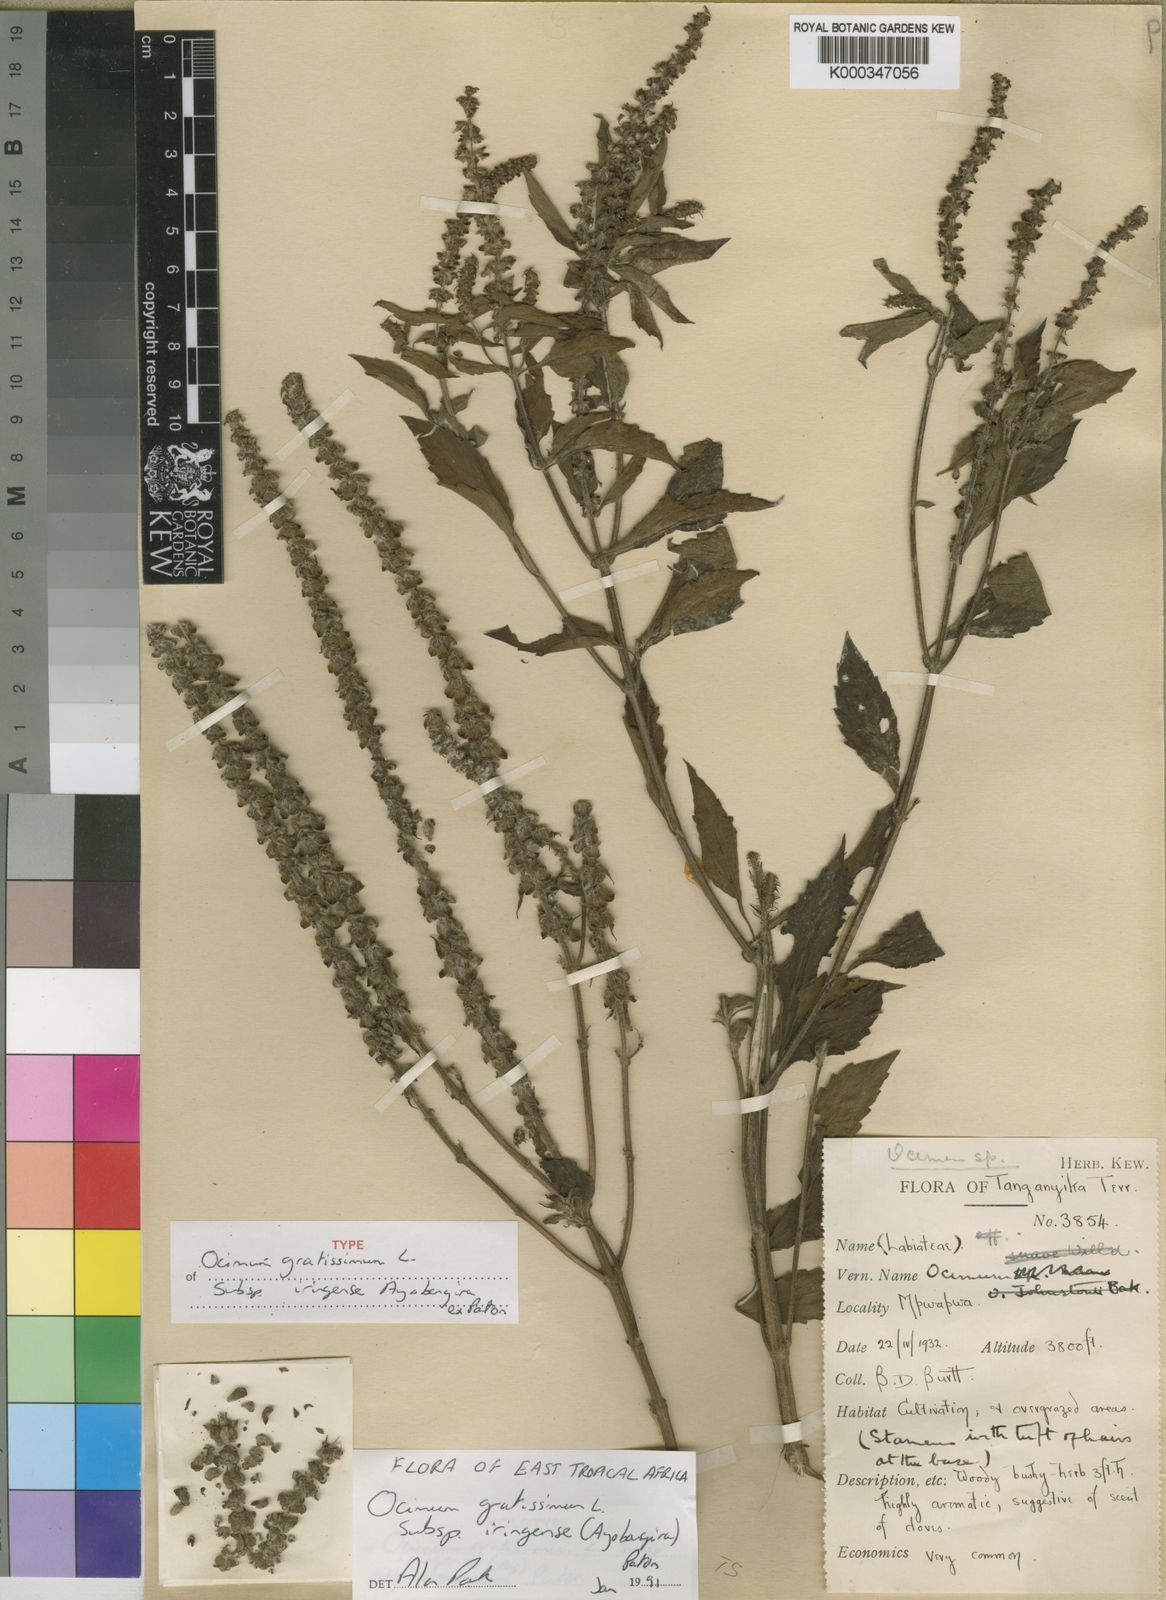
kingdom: Plantae
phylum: Tracheophyta
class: Magnoliopsida
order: Lamiales
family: Lamiaceae
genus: Ocimum
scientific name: Ocimum gratissimum
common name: African basil
